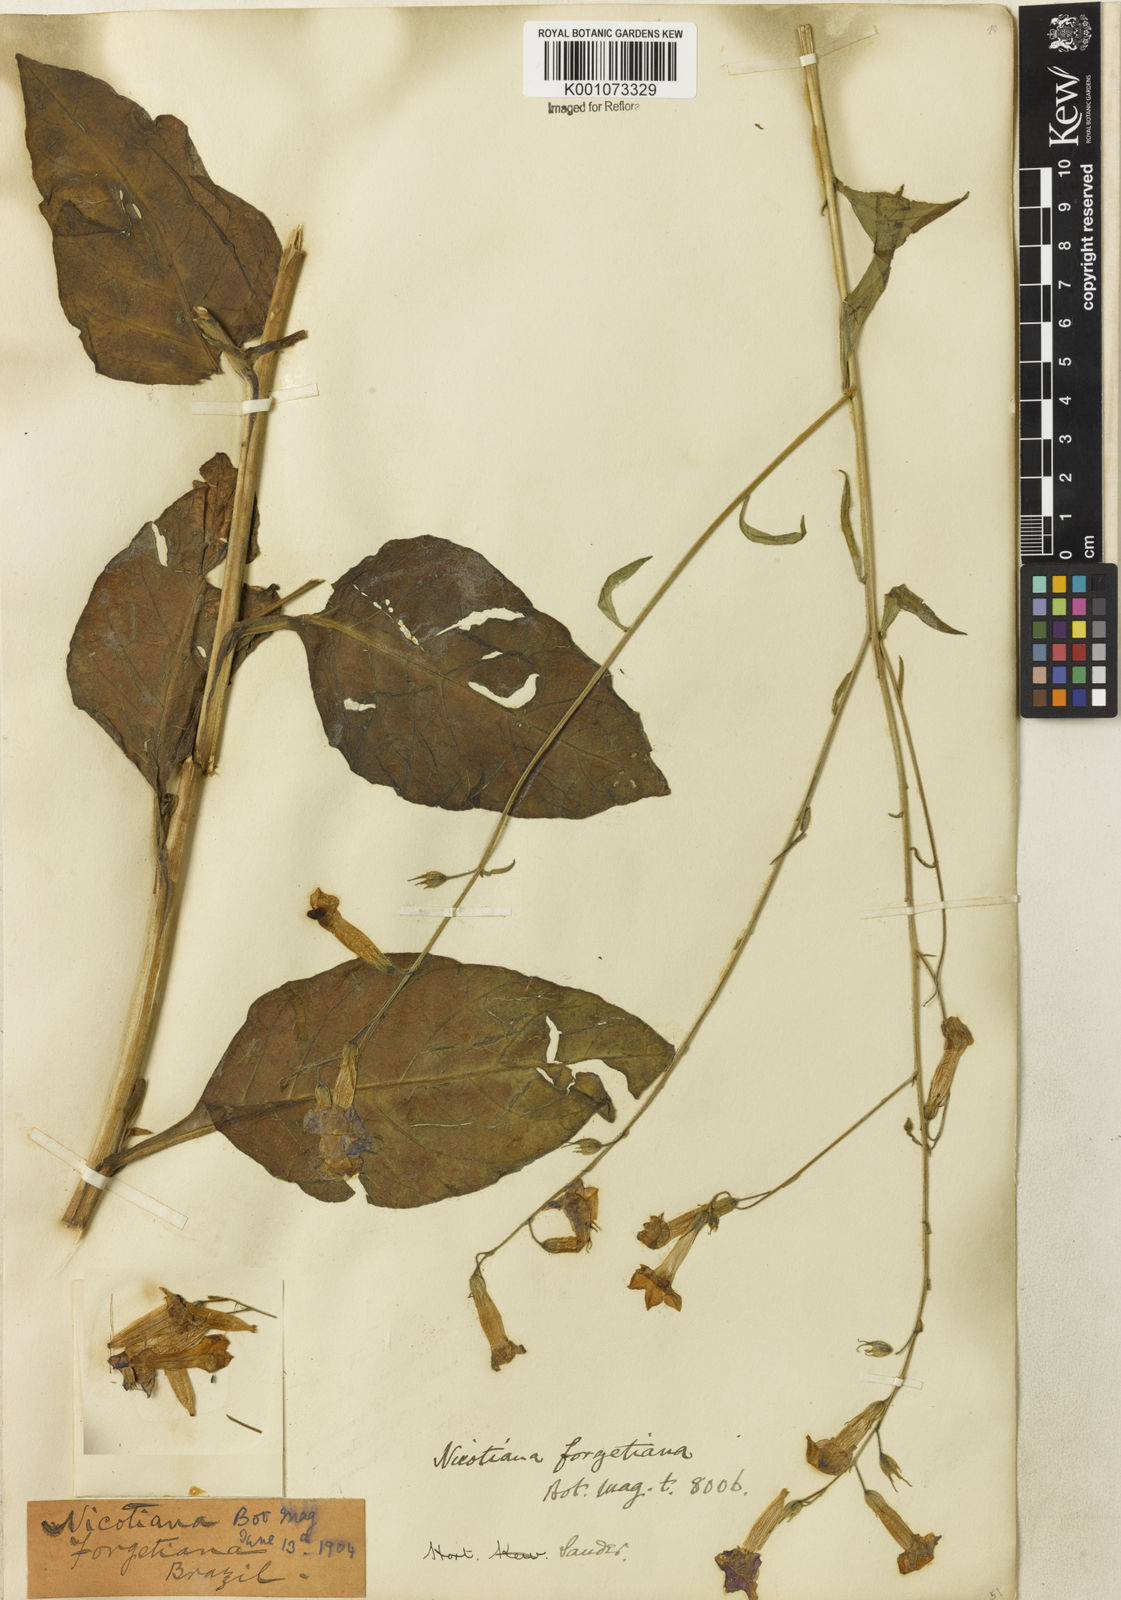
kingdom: Plantae
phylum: Tracheophyta
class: Magnoliopsida
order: Solanales
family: Solanaceae
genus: Nicotiana
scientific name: Nicotiana
